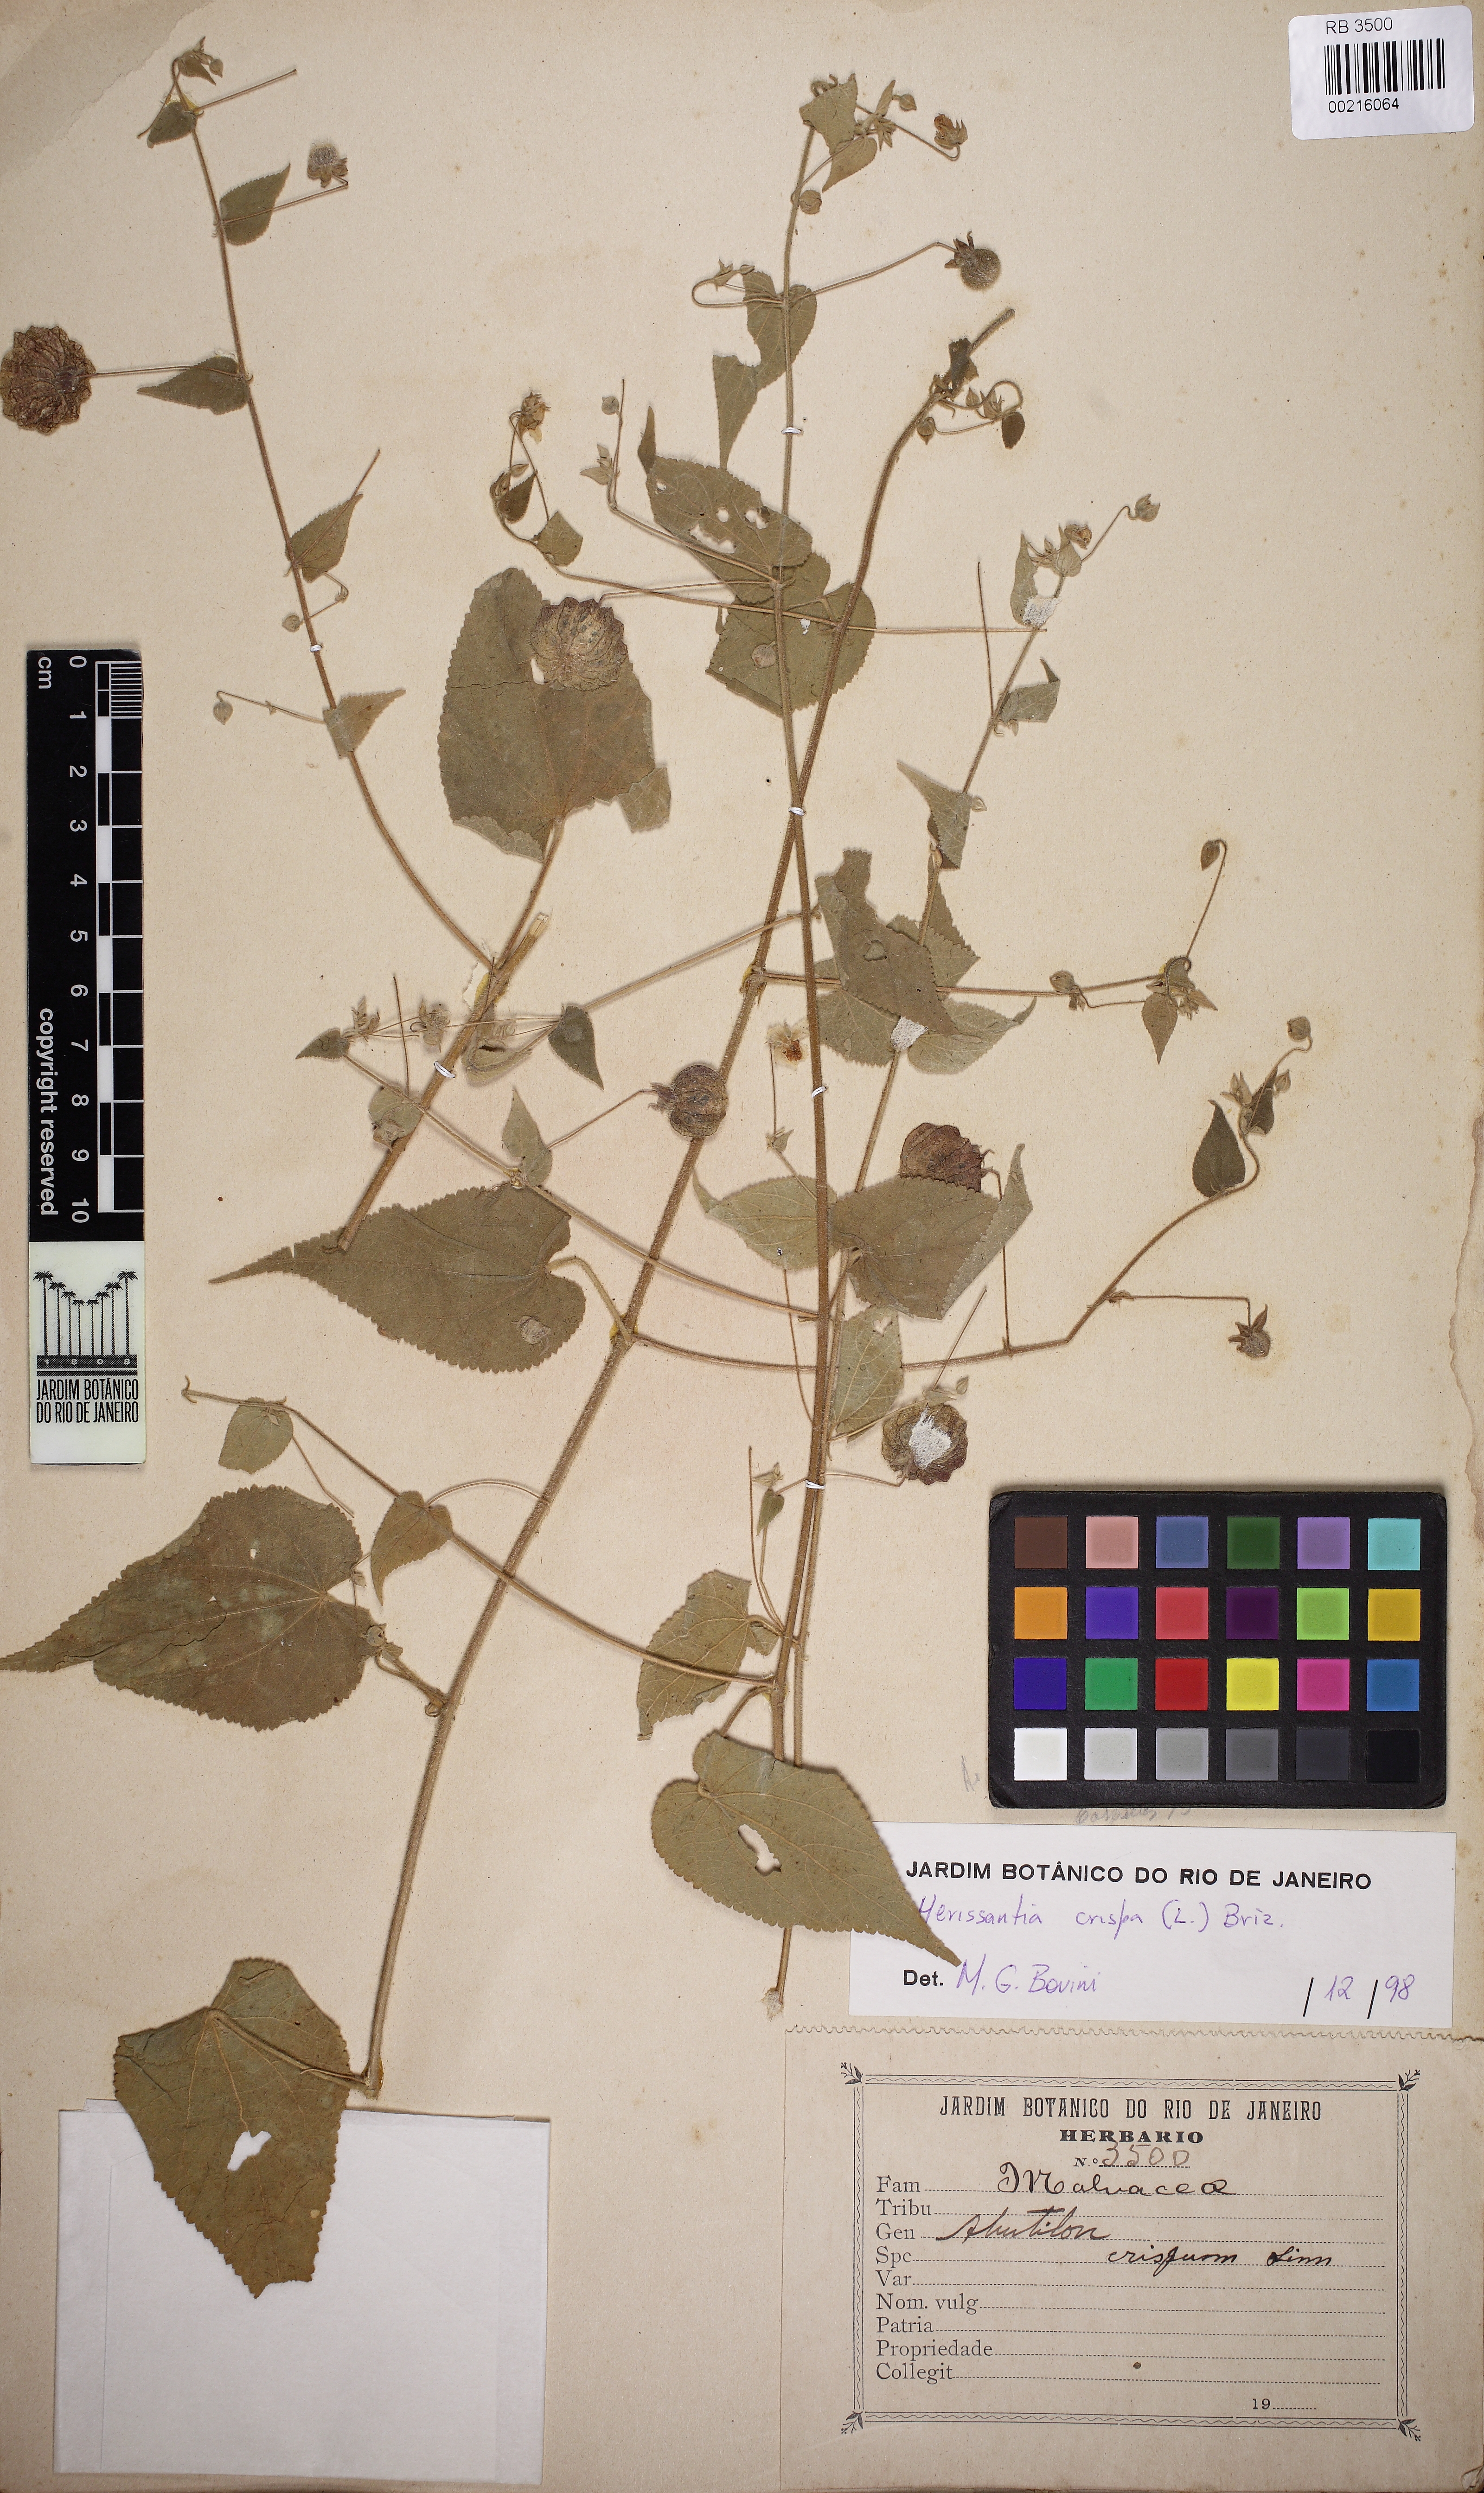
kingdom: Plantae
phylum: Tracheophyta
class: Magnoliopsida
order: Malvales
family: Malvaceae
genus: Herissantia
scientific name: Herissantia crispa
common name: Bladdermallow
